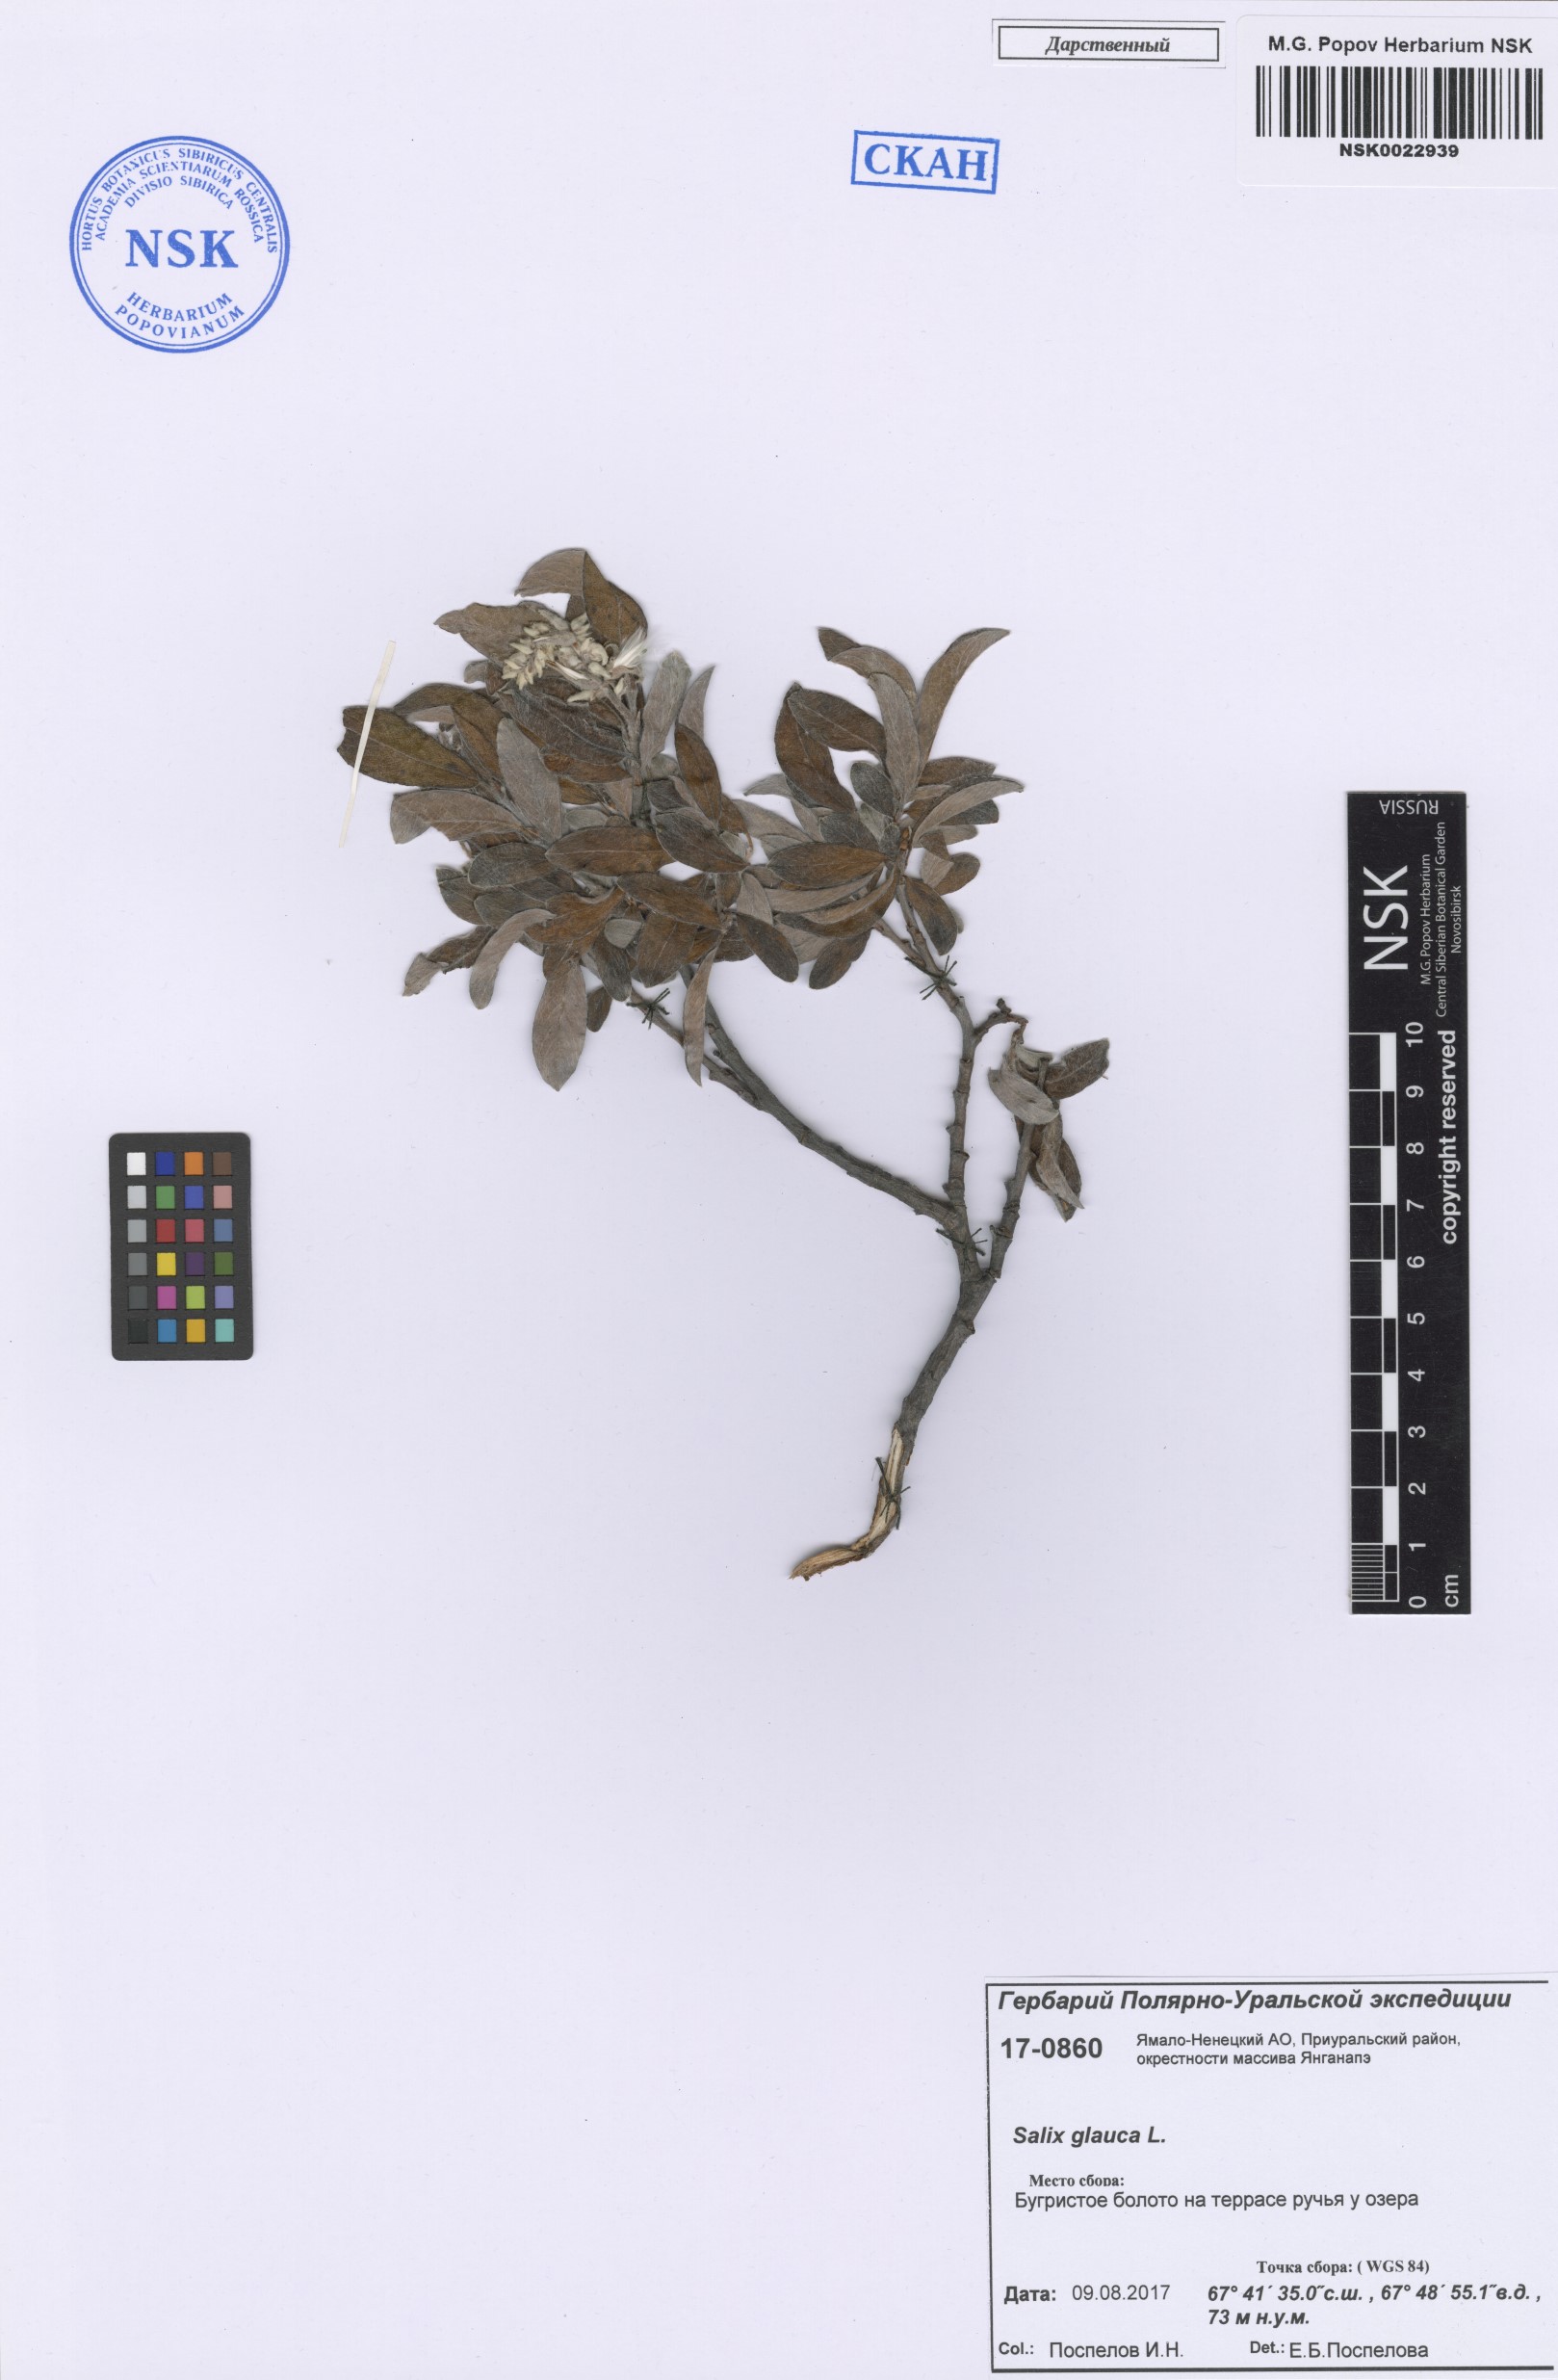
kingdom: Plantae
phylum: Tracheophyta
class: Magnoliopsida
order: Malpighiales
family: Salicaceae
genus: Salix
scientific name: Salix glauca
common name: Glaucous willow
